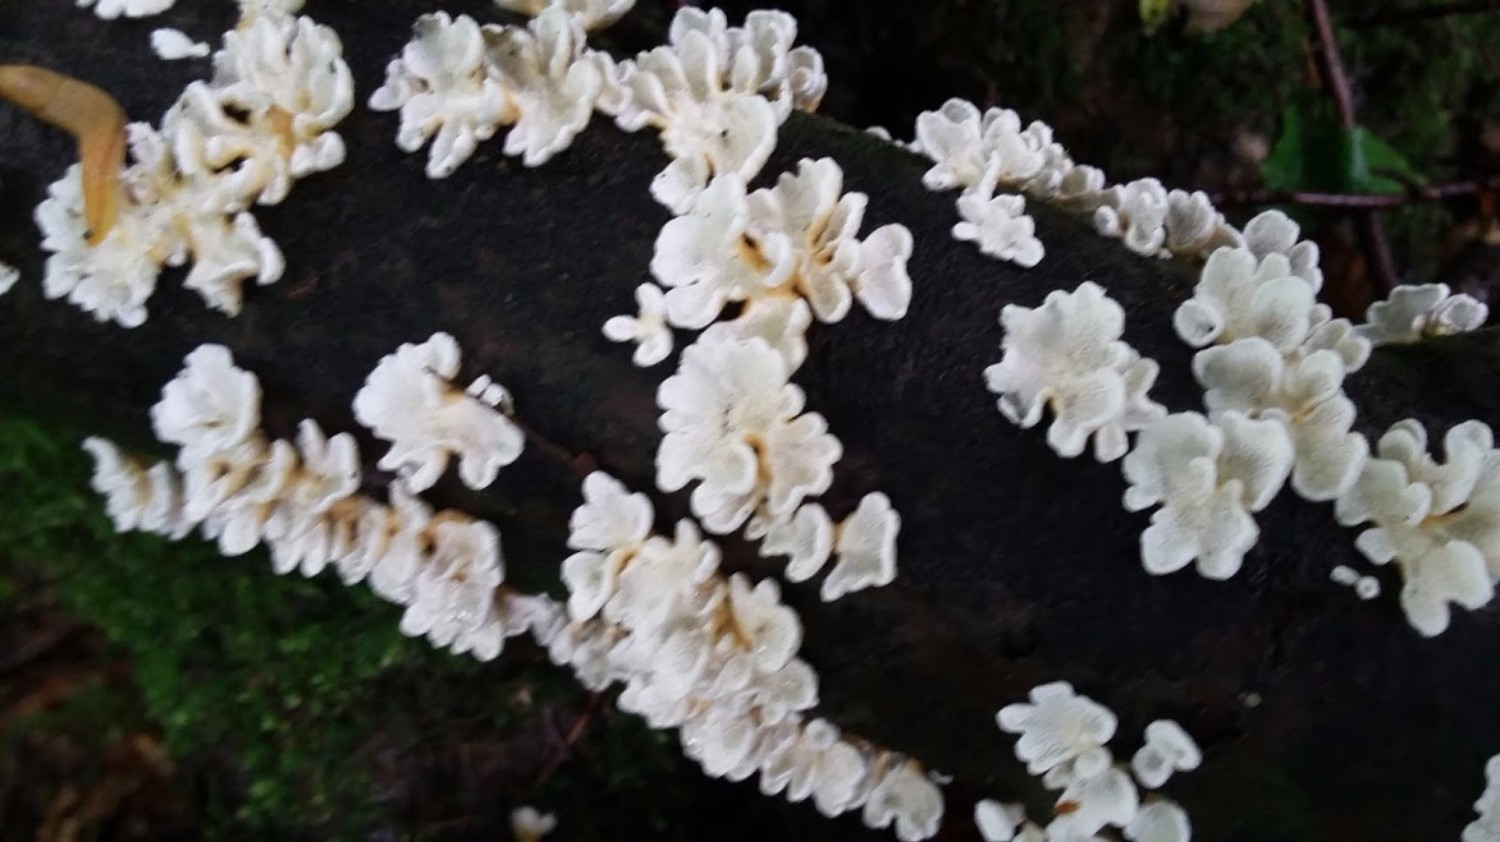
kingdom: Fungi
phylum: Basidiomycota
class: Agaricomycetes
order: Amylocorticiales
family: Amylocorticiaceae
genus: Plicaturopsis
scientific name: Plicaturopsis crispa
